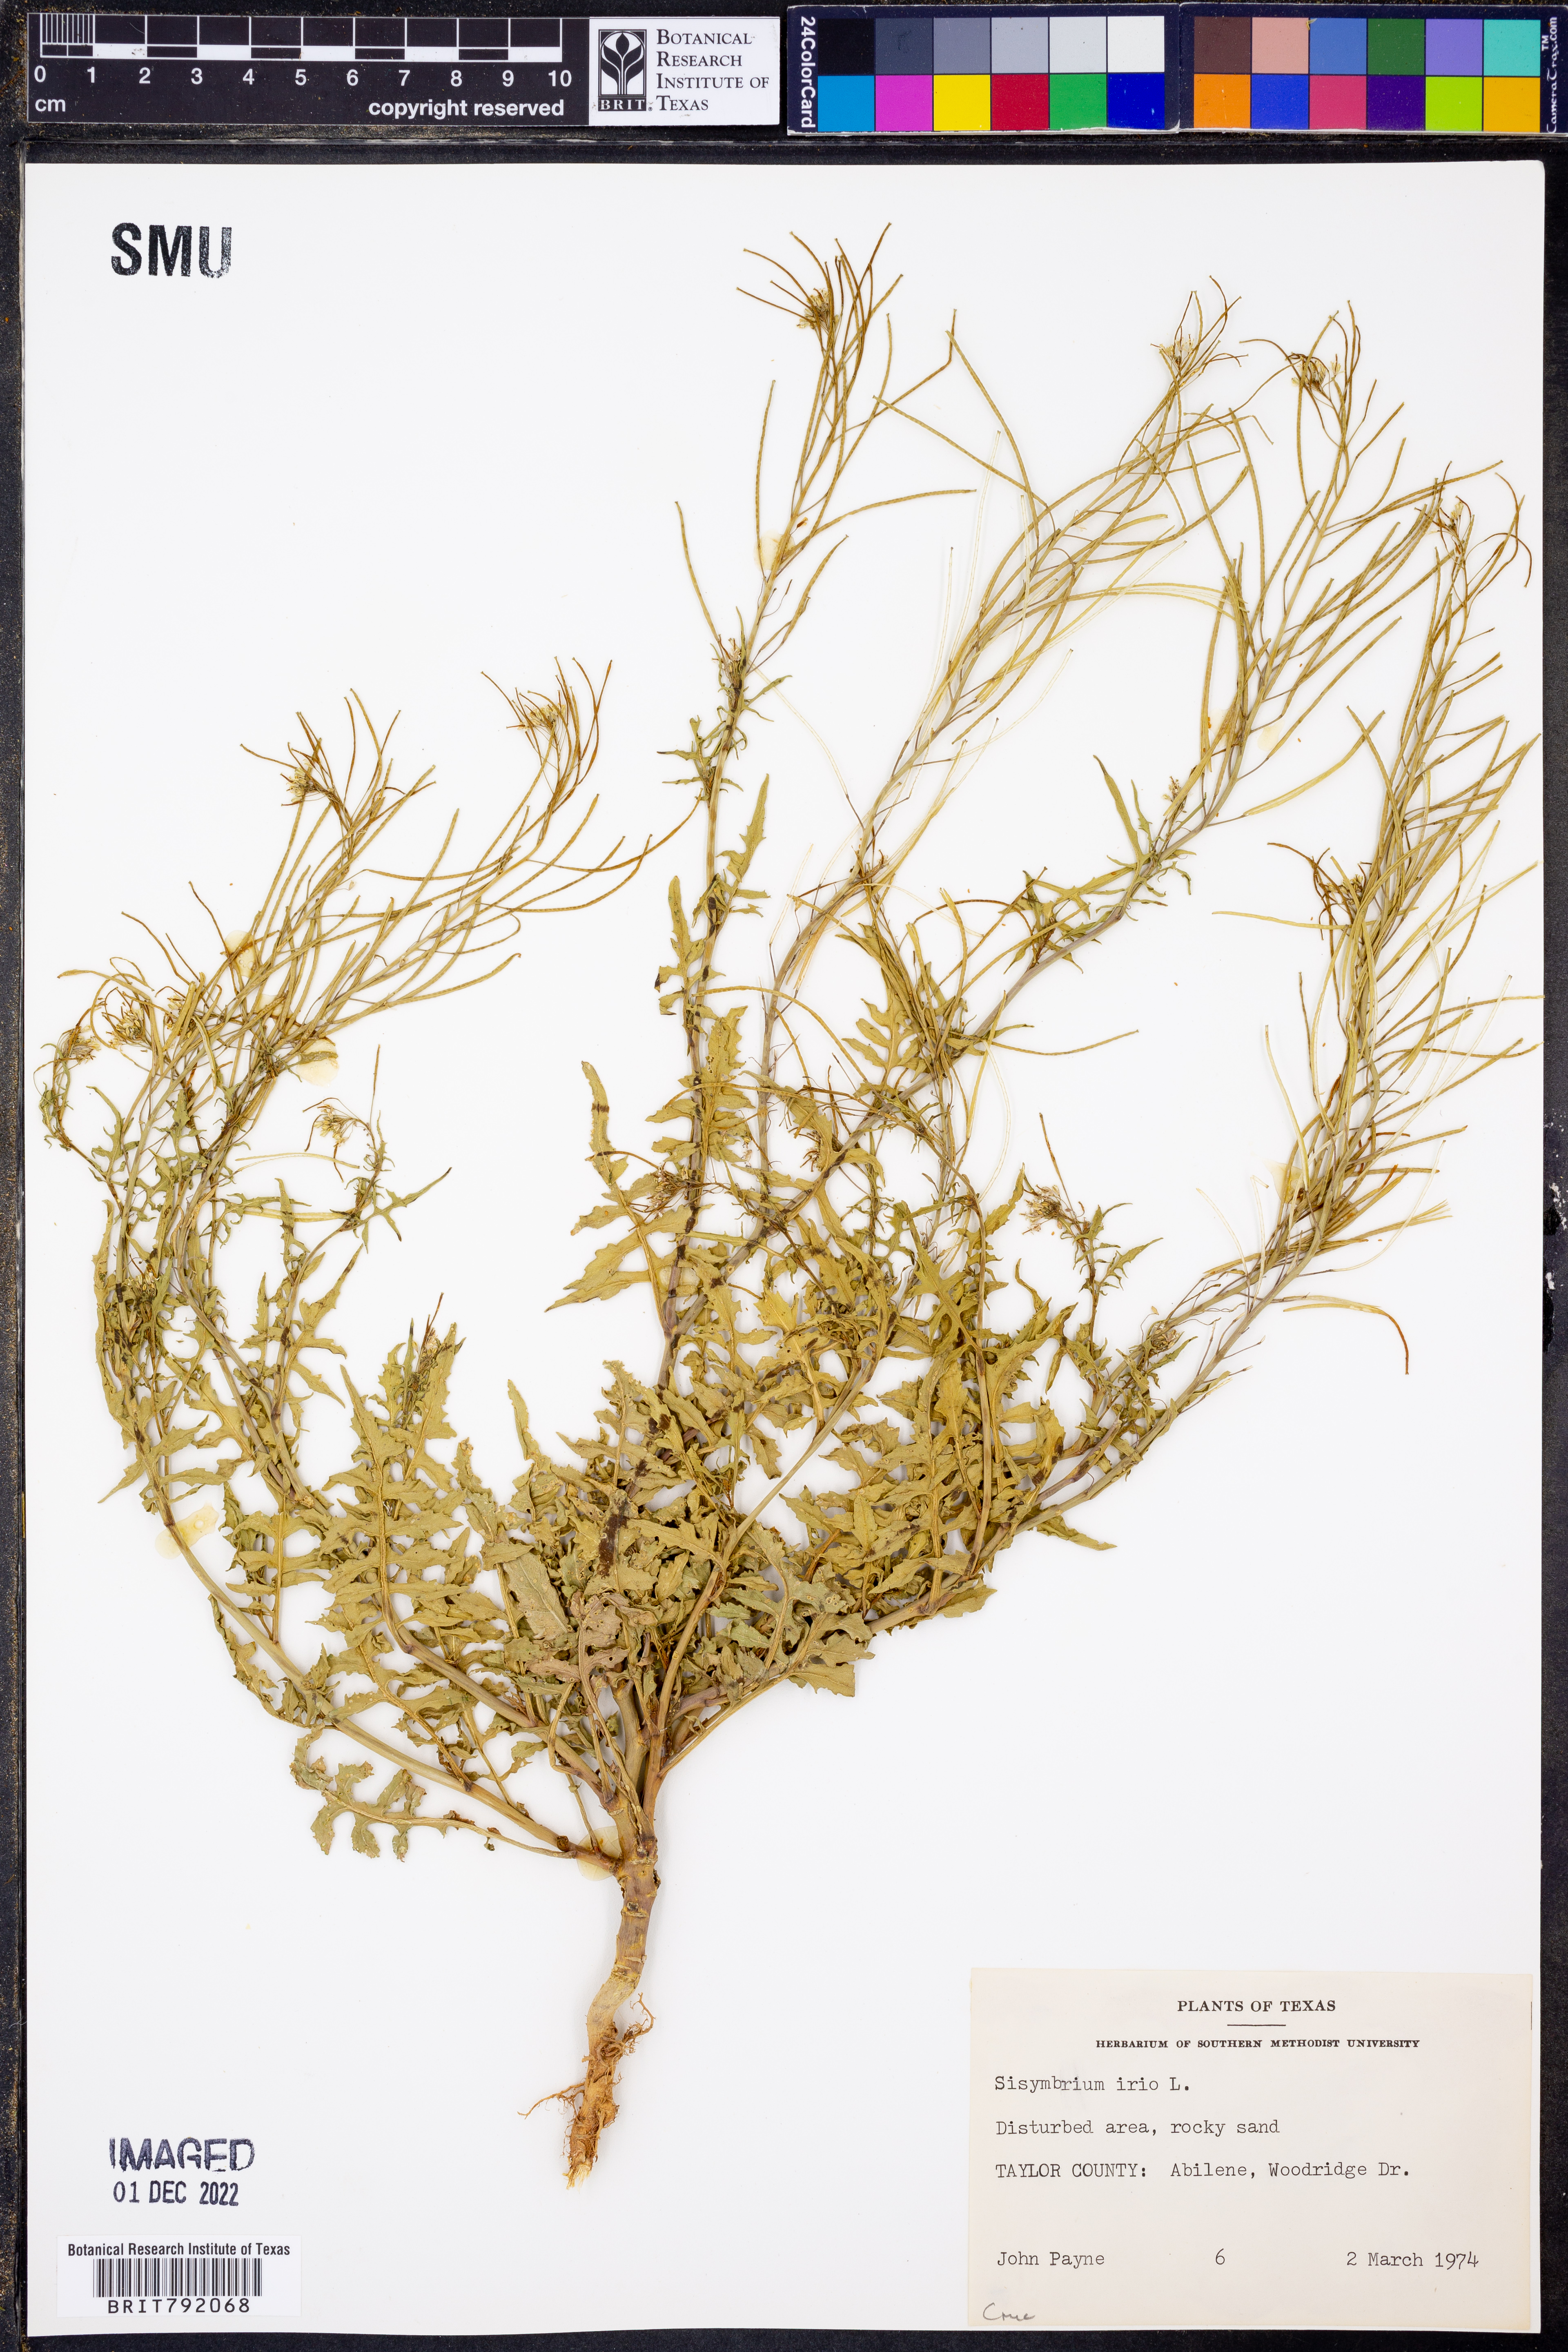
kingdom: Plantae
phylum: Tracheophyta
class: Magnoliopsida
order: Brassicales
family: Brassicaceae
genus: Sisymbrium
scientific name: Sisymbrium irio
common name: London rocket
